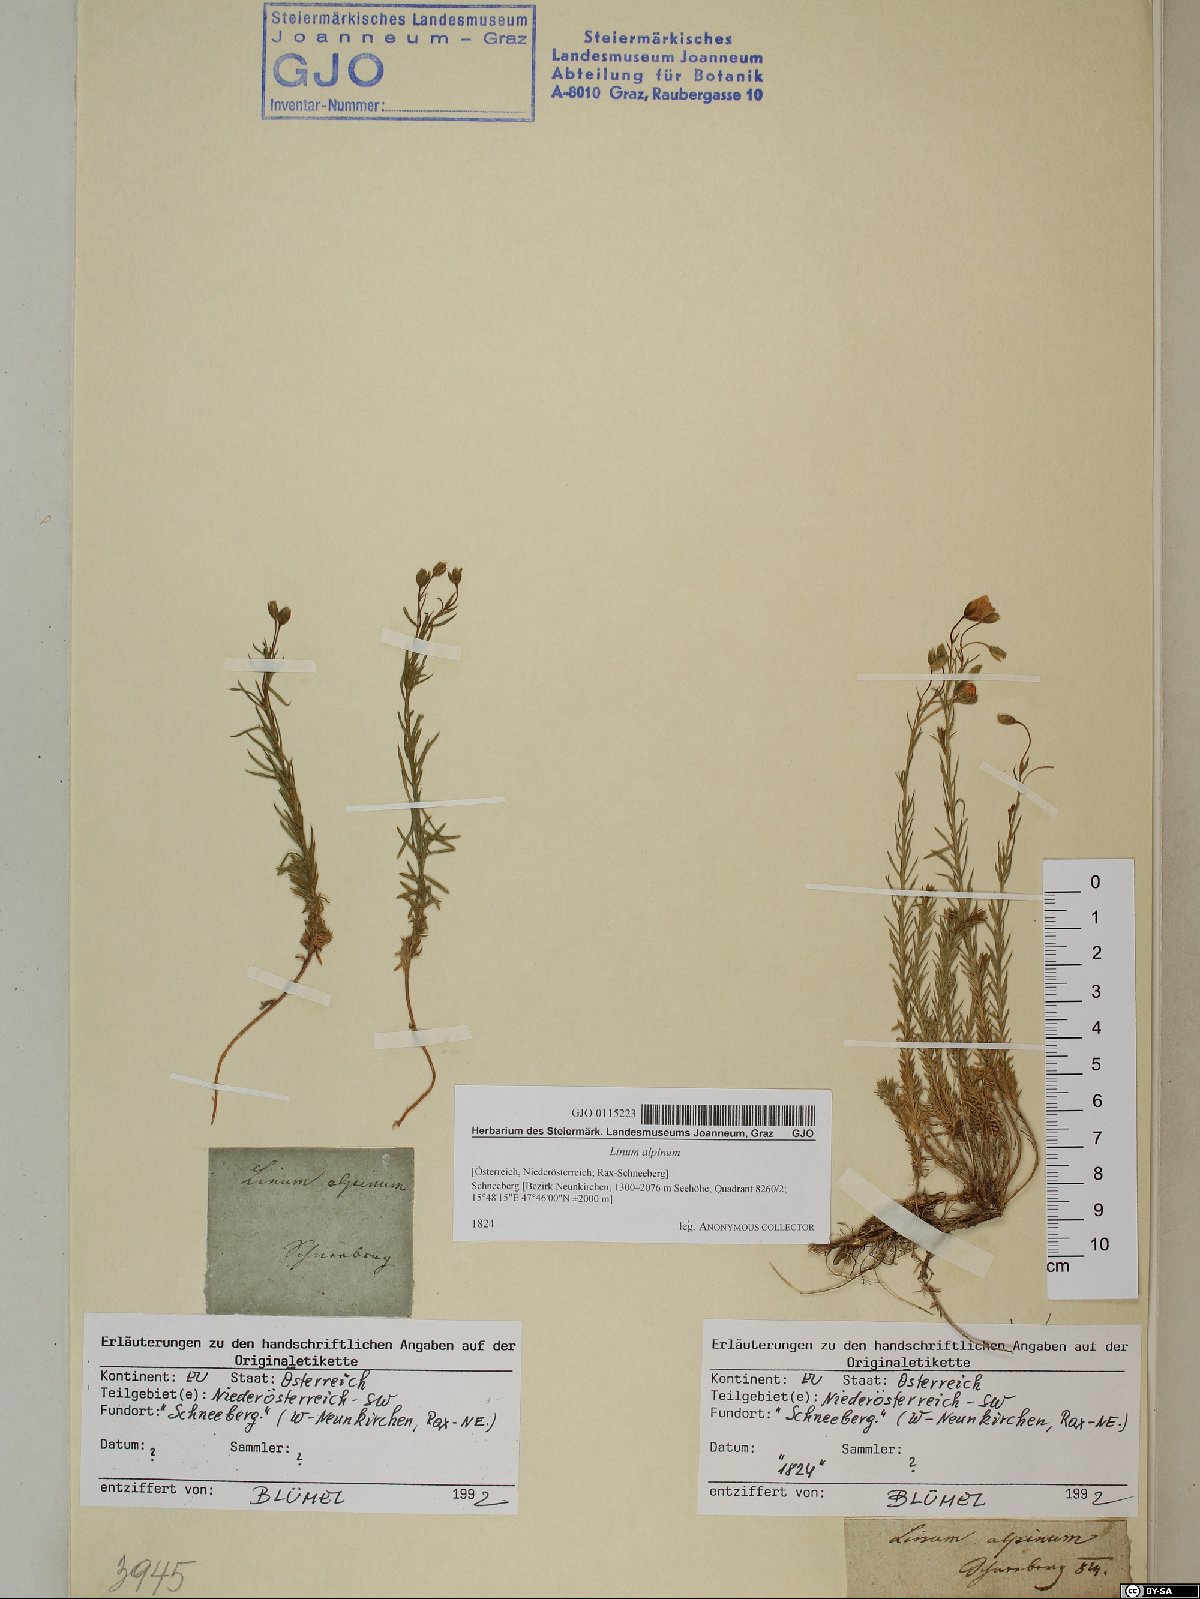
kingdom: Plantae
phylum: Tracheophyta
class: Magnoliopsida
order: Malpighiales
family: Linaceae
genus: Linum
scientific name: Linum alpinum
